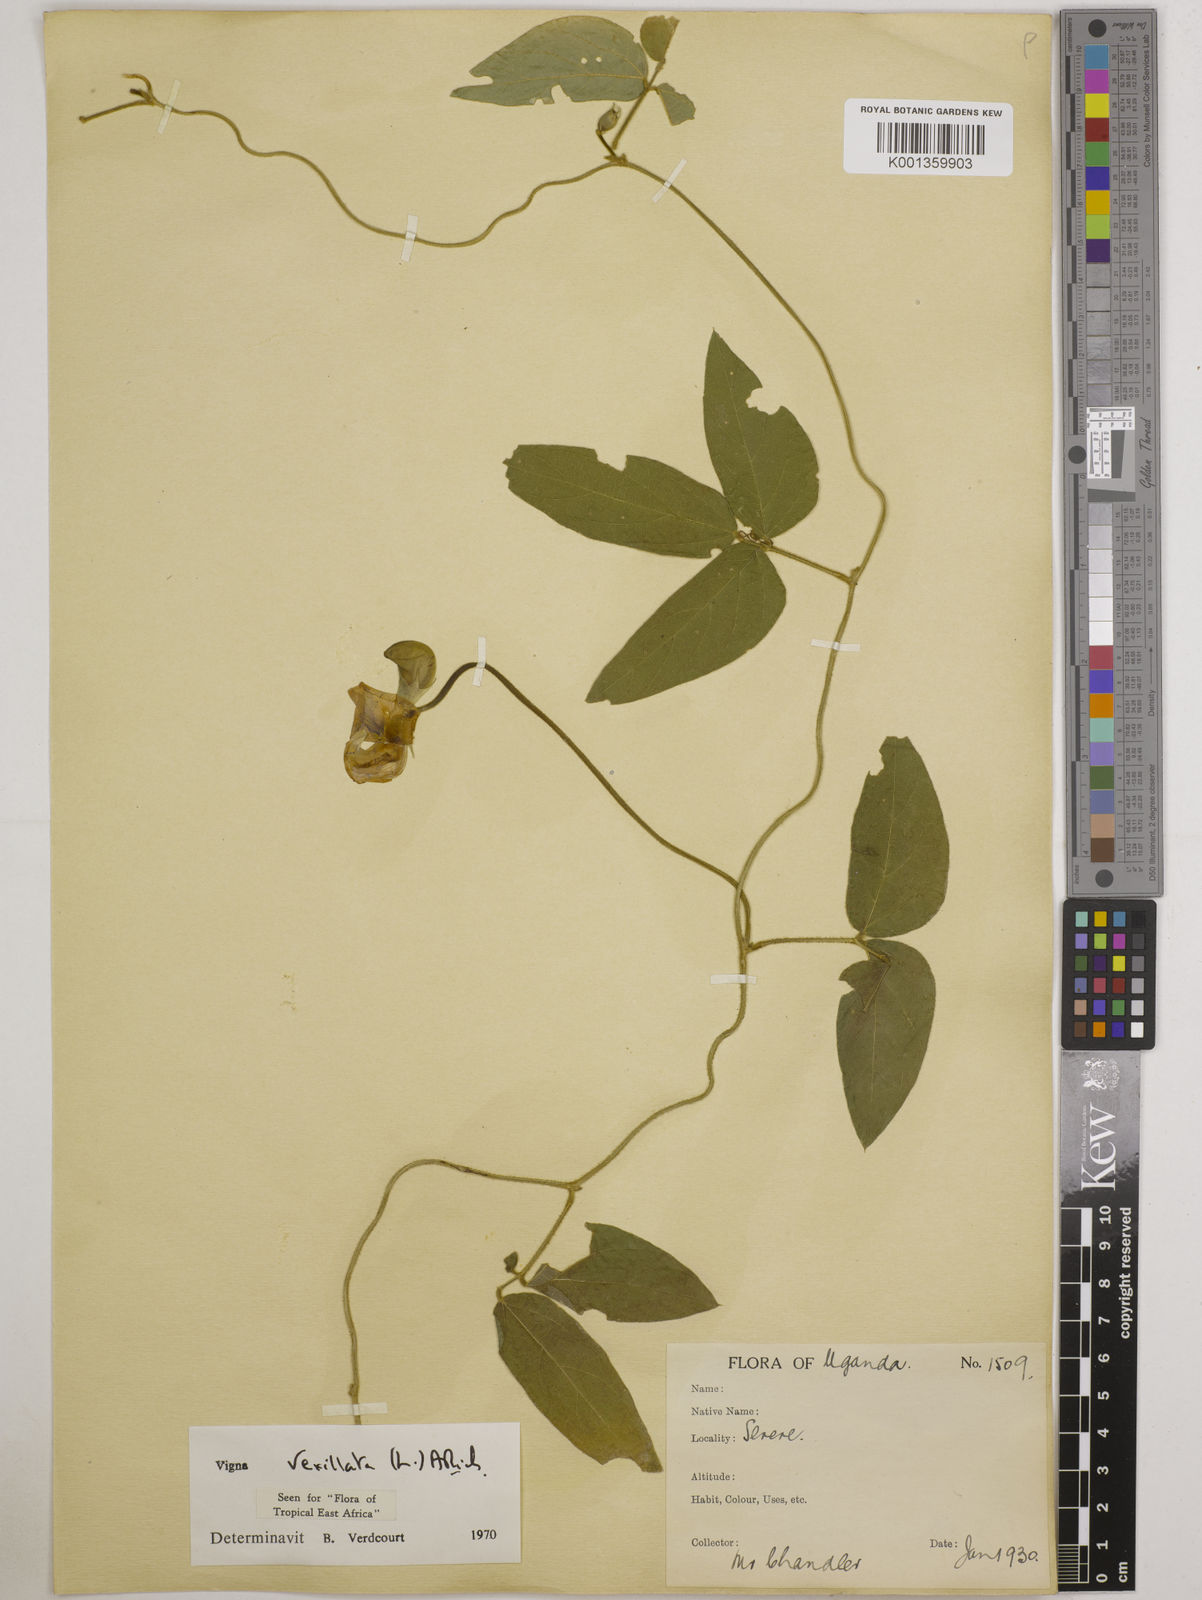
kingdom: Plantae
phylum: Tracheophyta
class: Magnoliopsida
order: Fabales
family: Fabaceae
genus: Vigna
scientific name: Vigna vexillata
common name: Zombi pea
